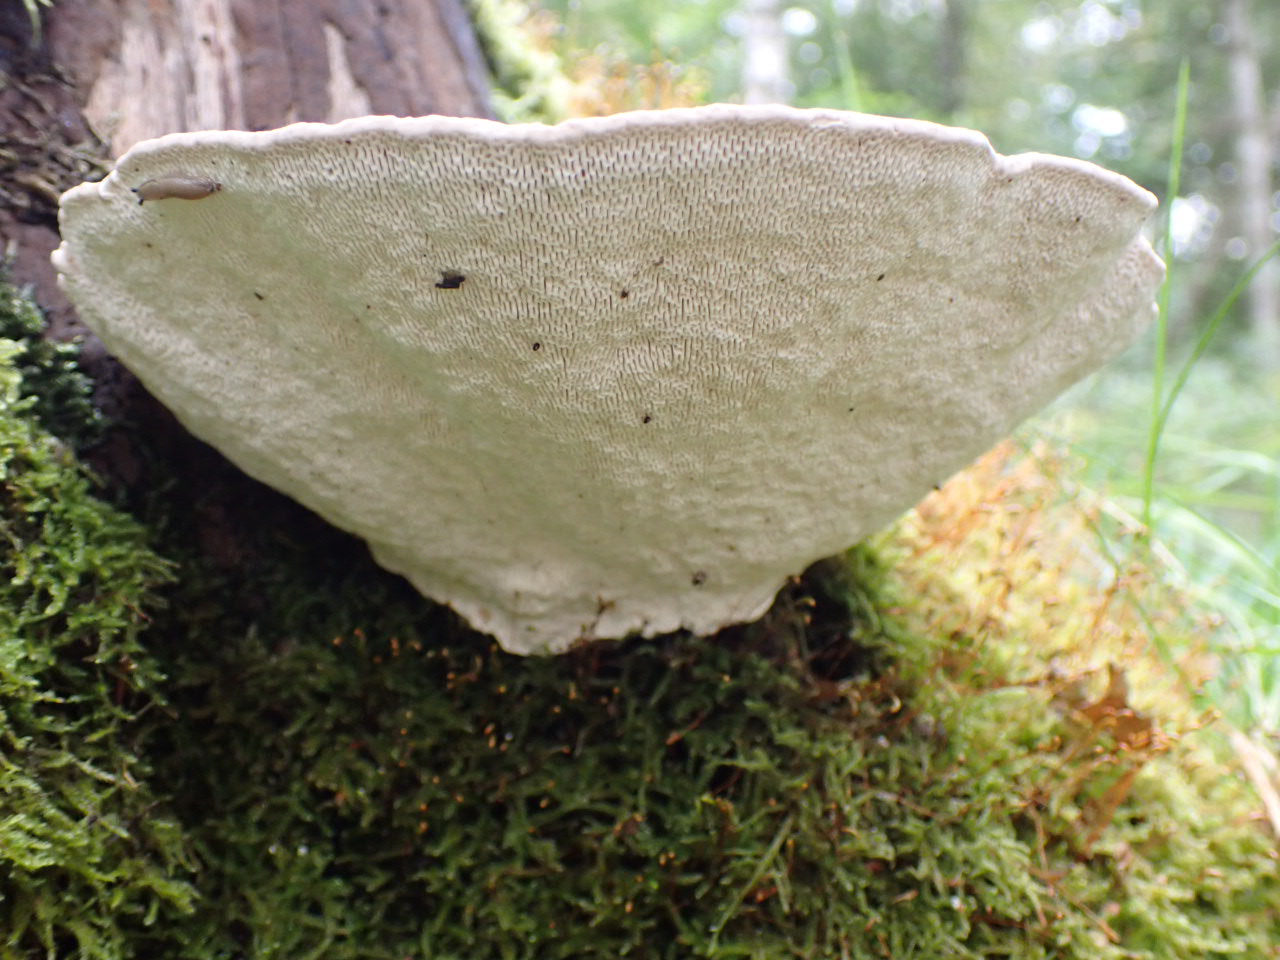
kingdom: Fungi
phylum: Basidiomycota
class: Agaricomycetes
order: Polyporales
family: Polyporaceae
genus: Trametes
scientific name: Trametes gibbosa
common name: puklet læderporesvamp
